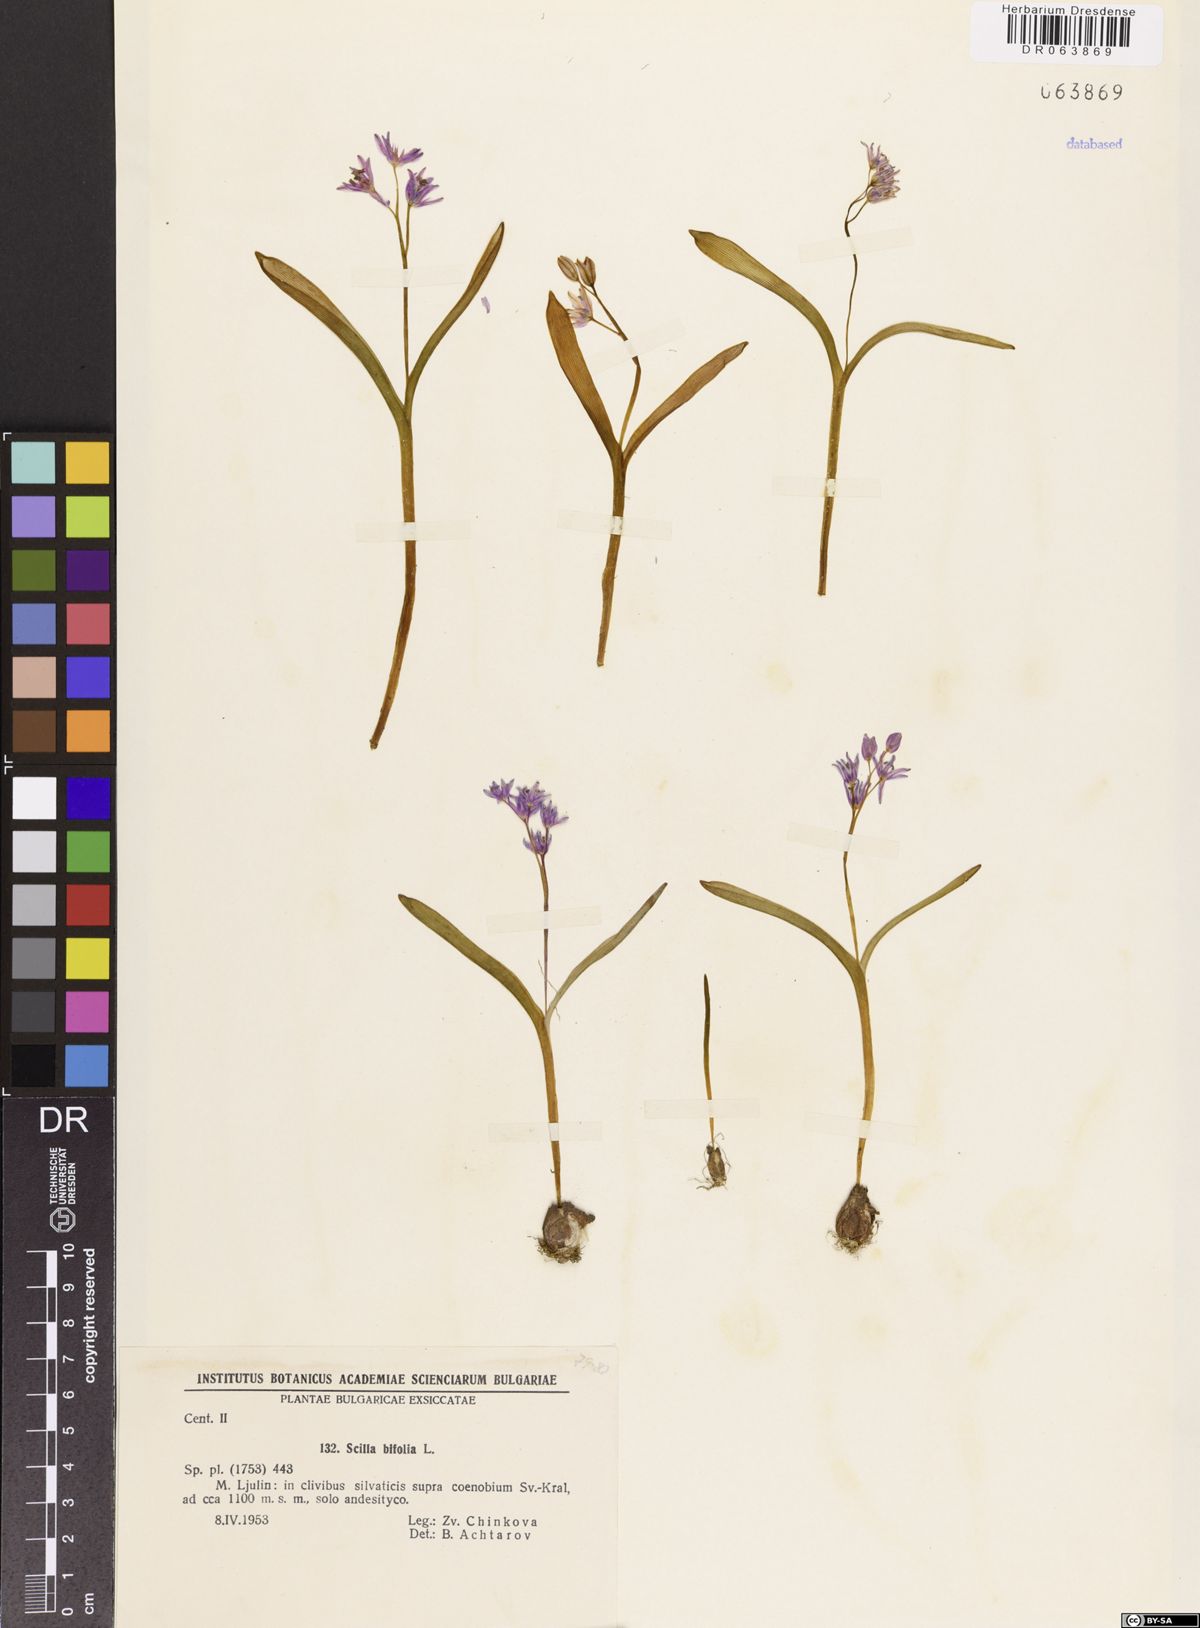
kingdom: Plantae
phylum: Tracheophyta
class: Liliopsida
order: Asparagales
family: Asparagaceae
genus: Scilla
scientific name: Scilla bifolia
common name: Alpine squill
